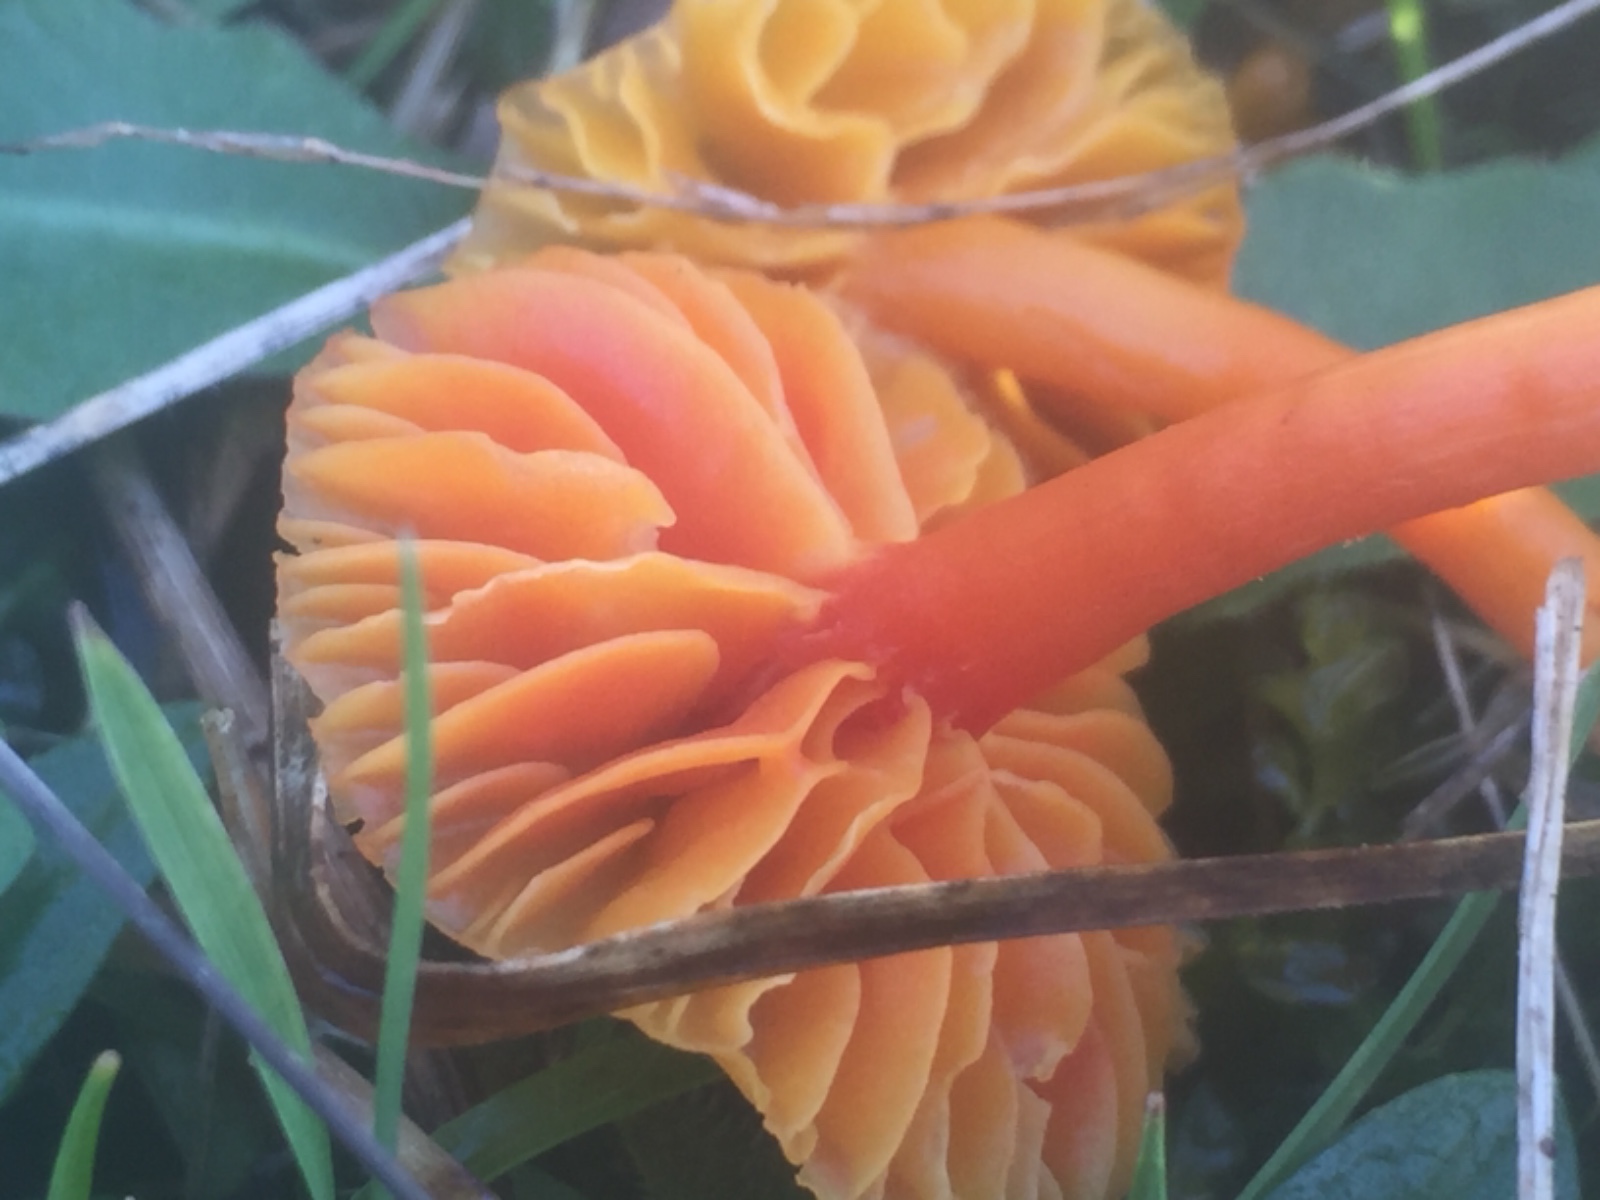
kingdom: Fungi
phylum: Basidiomycota
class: Agaricomycetes
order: Agaricales
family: Hygrophoraceae
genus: Hygrocybe
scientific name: Hygrocybe coccinea
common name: cinnober-vokshat
